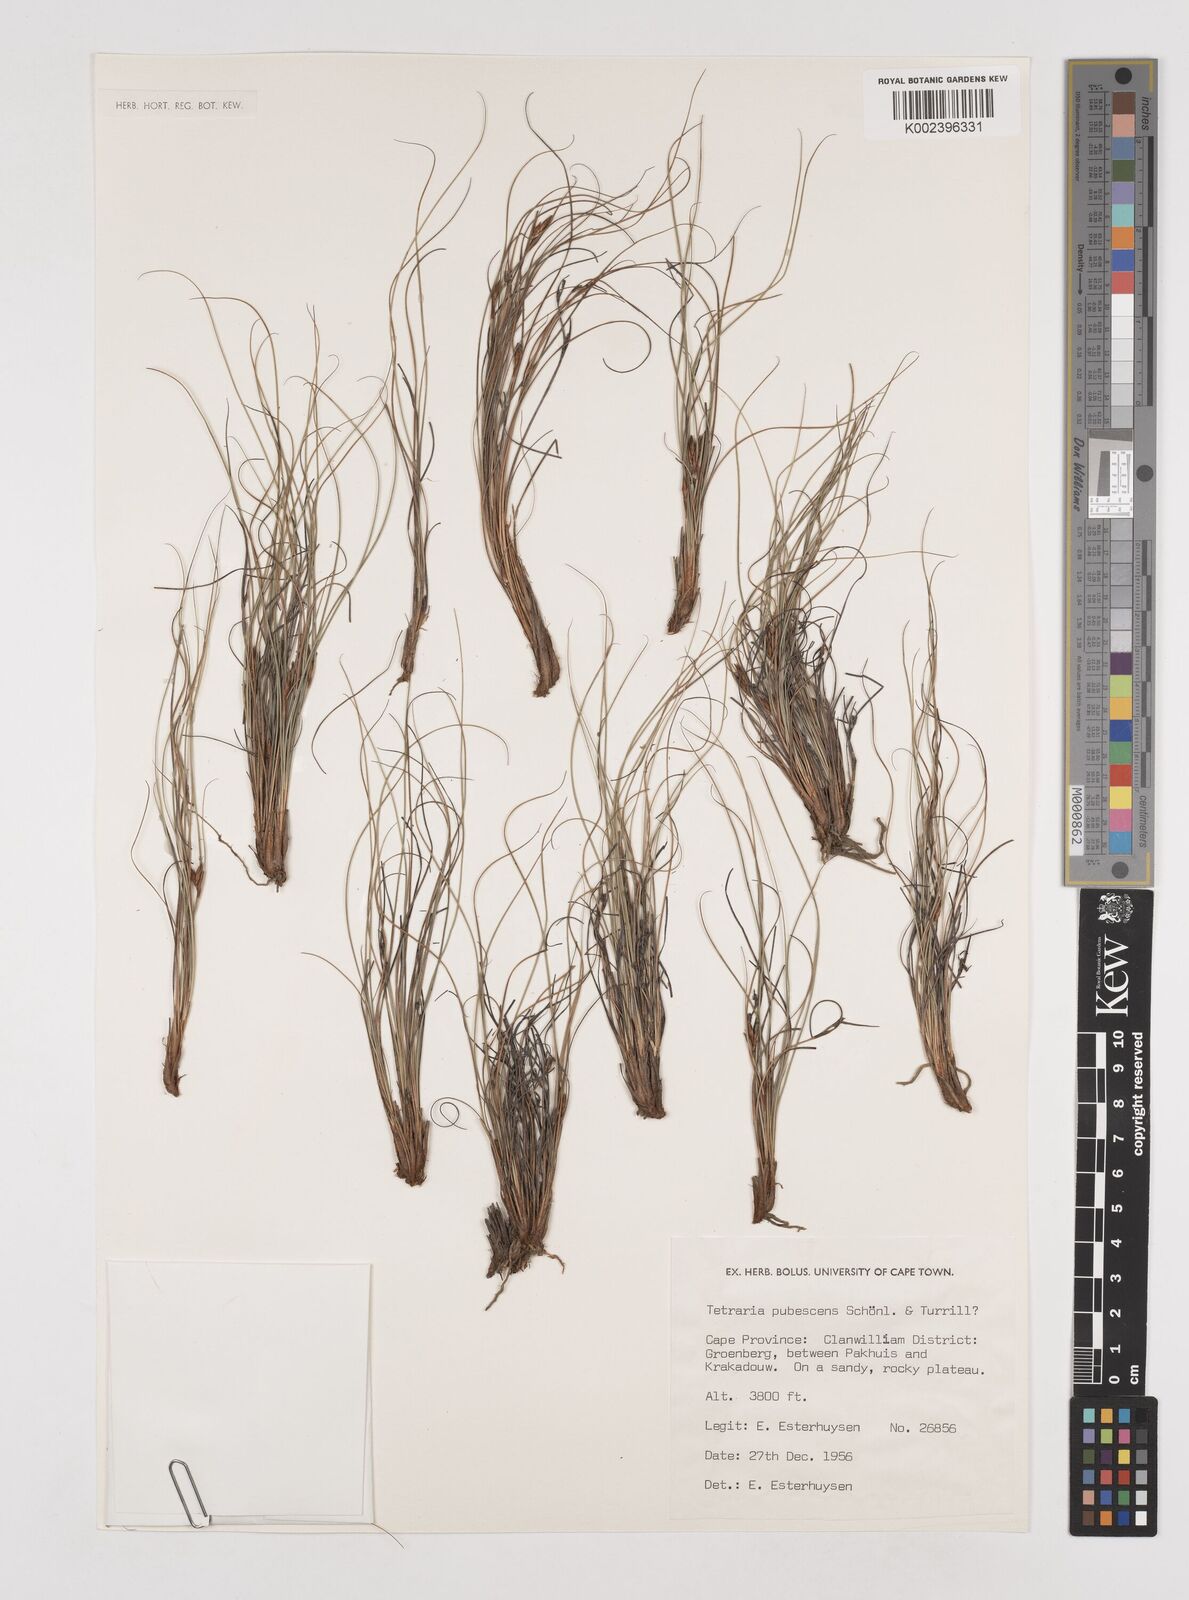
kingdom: Plantae
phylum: Tracheophyta
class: Liliopsida
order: Poales
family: Cyperaceae
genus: Tetraria
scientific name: Tetraria pubescens
